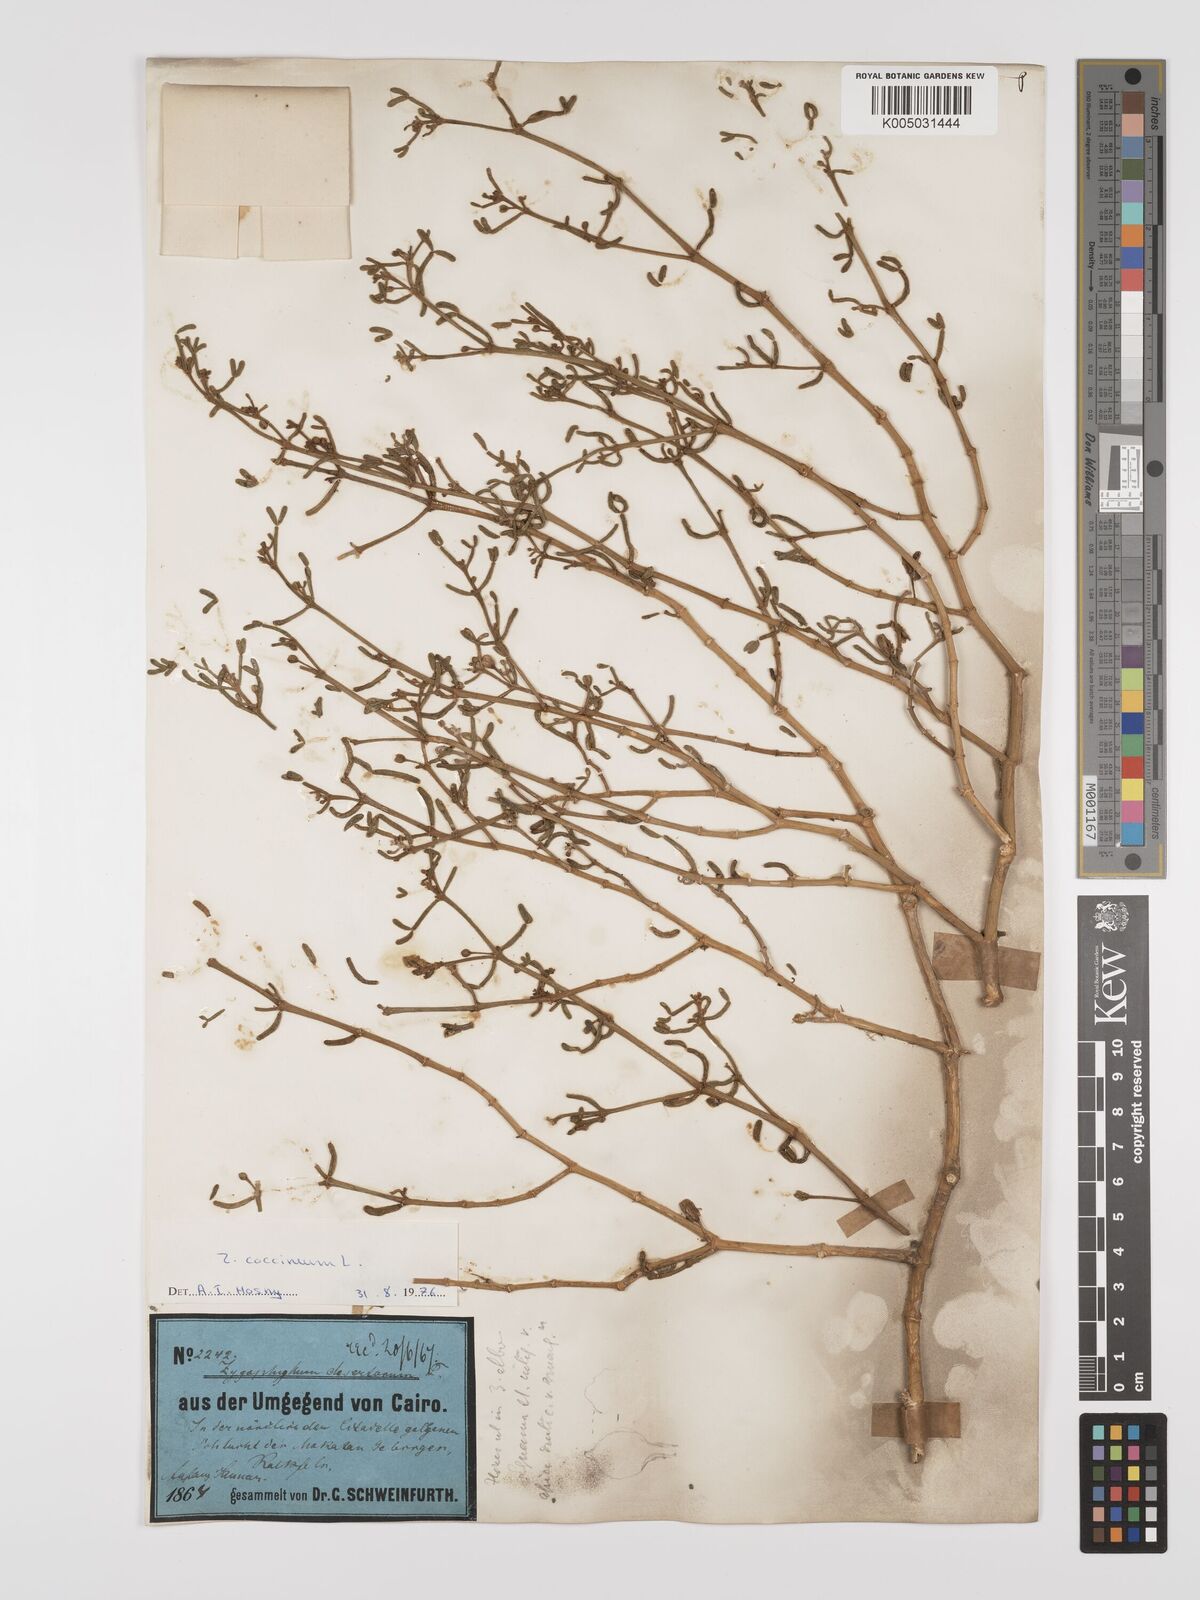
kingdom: Plantae
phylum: Tracheophyta
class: Magnoliopsida
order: Zygophyllales
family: Zygophyllaceae
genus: Zygophyllum
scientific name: Zygophyllum
